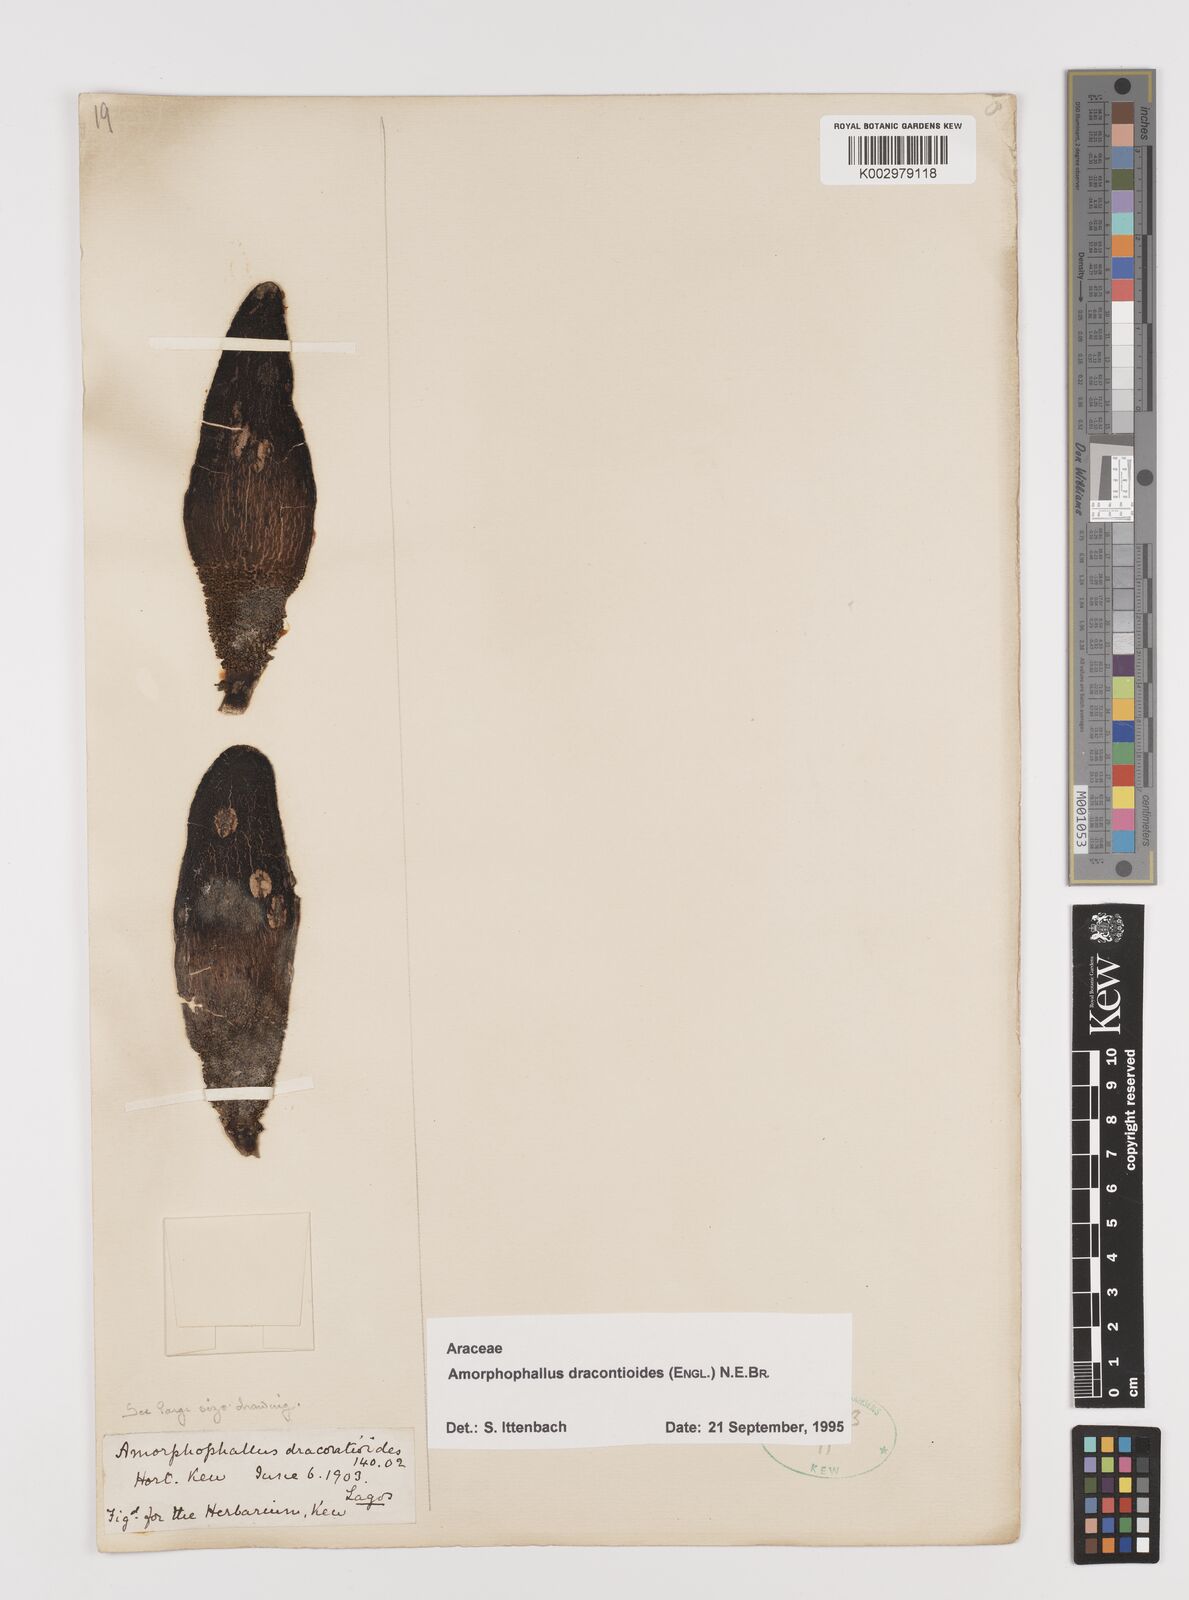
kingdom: Plantae
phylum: Tracheophyta
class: Liliopsida
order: Alismatales
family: Araceae
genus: Amorphophallus
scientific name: Amorphophallus dracontioides
